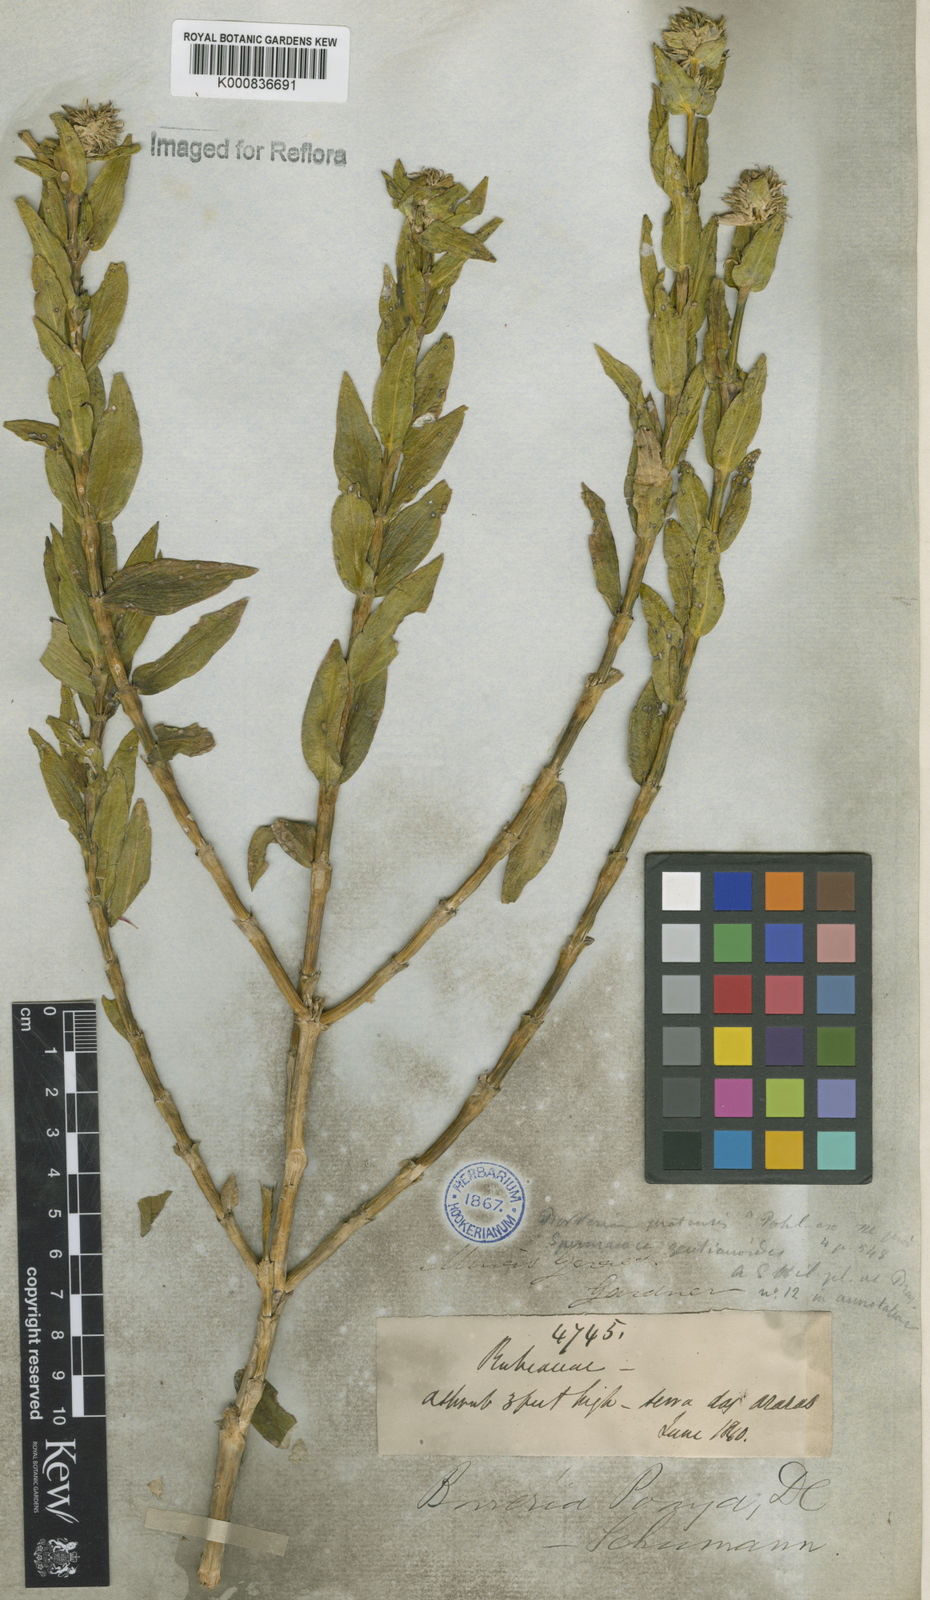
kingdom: Plantae
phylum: Tracheophyta
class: Magnoliopsida
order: Gentianales
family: Rubiaceae
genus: Spermacoce
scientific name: Spermacoce poaya
